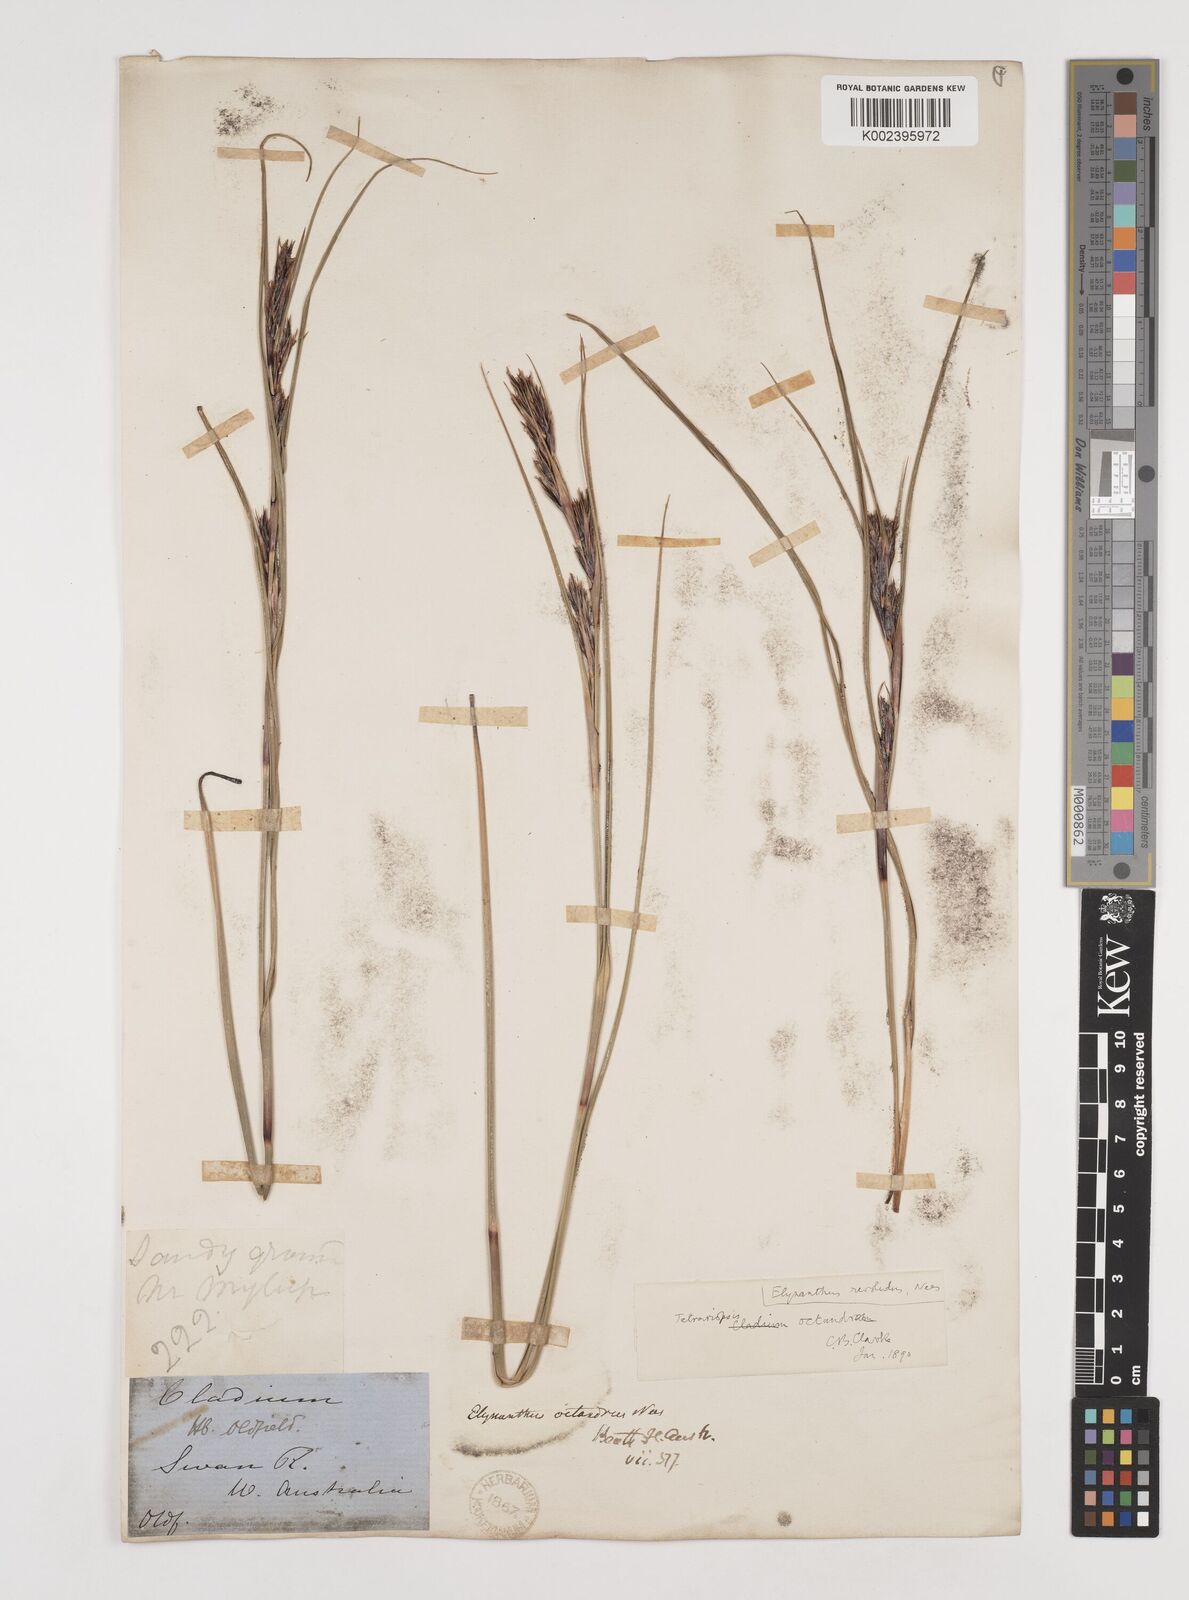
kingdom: Plantae
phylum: Tracheophyta
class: Liliopsida
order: Poales
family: Cyperaceae
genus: Tetraria
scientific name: Tetraria octandra
